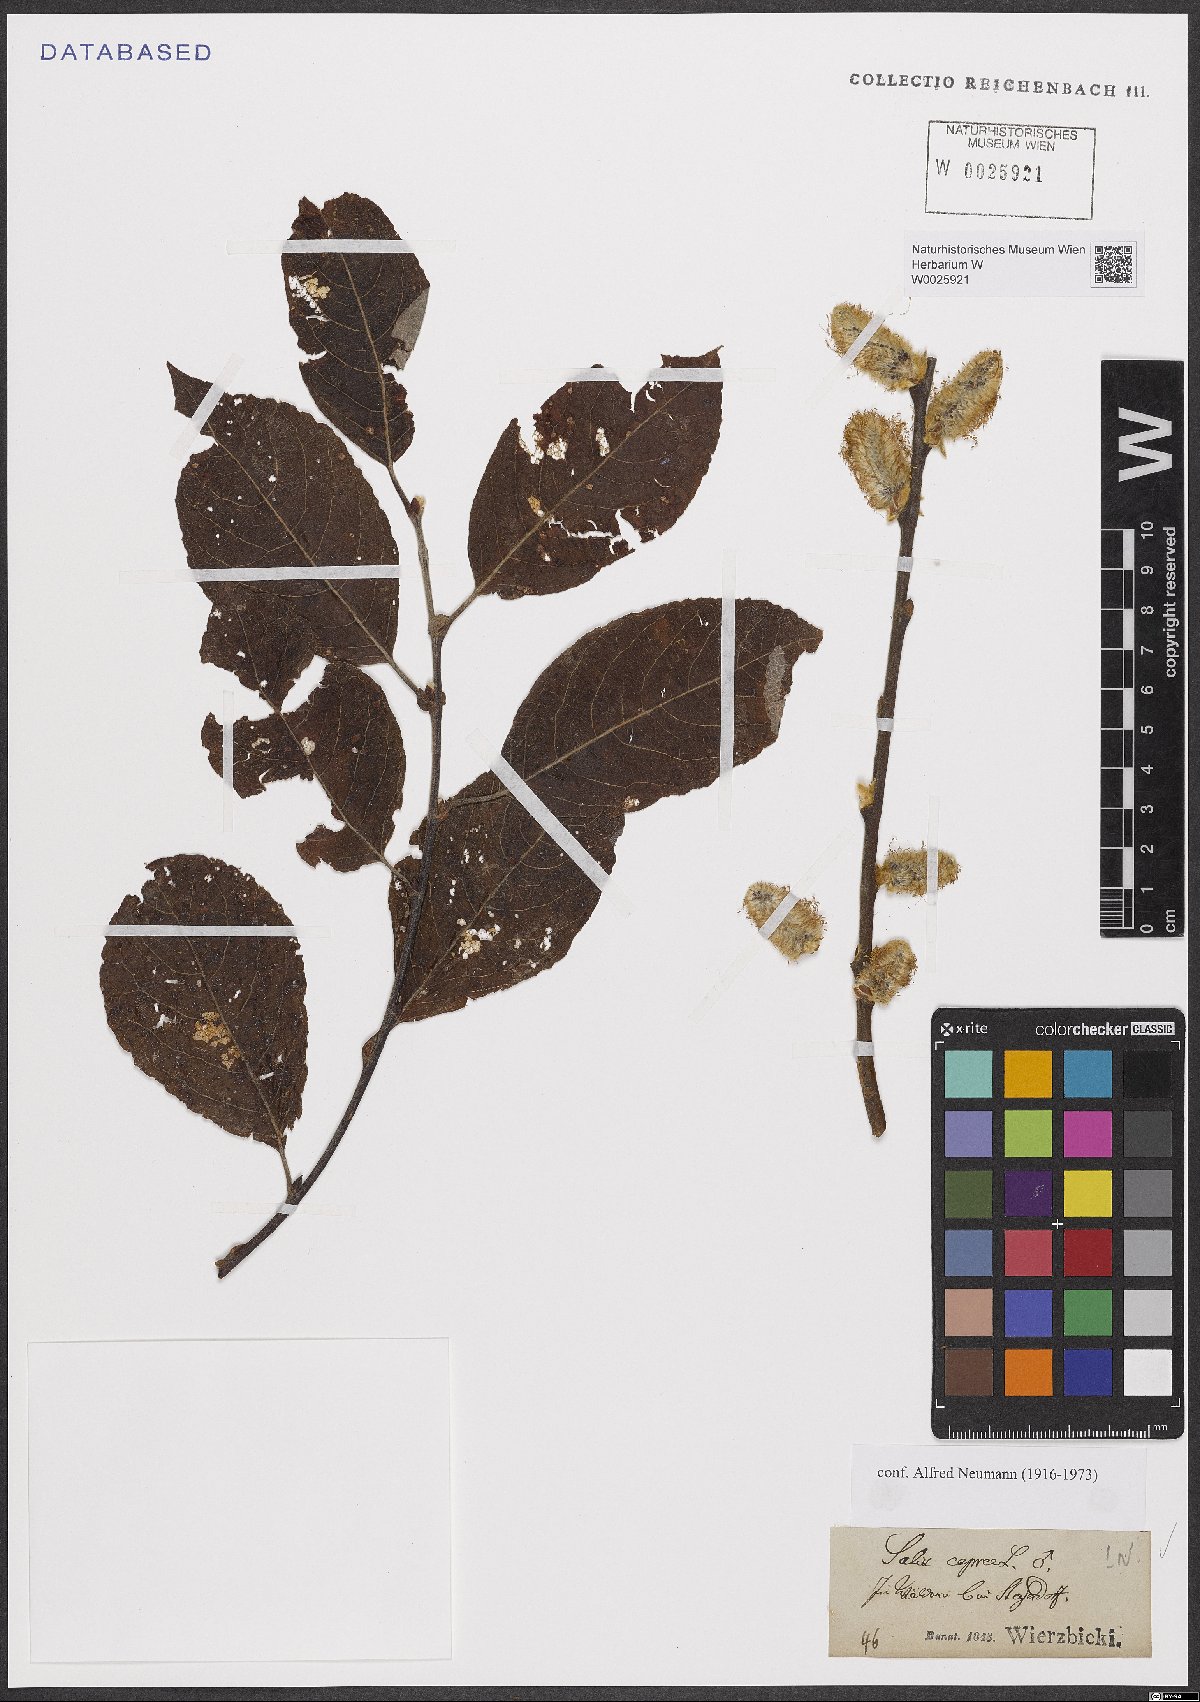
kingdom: Plantae
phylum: Tracheophyta
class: Magnoliopsida
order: Malpighiales
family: Salicaceae
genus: Salix
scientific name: Salix caprea
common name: Goat willow
